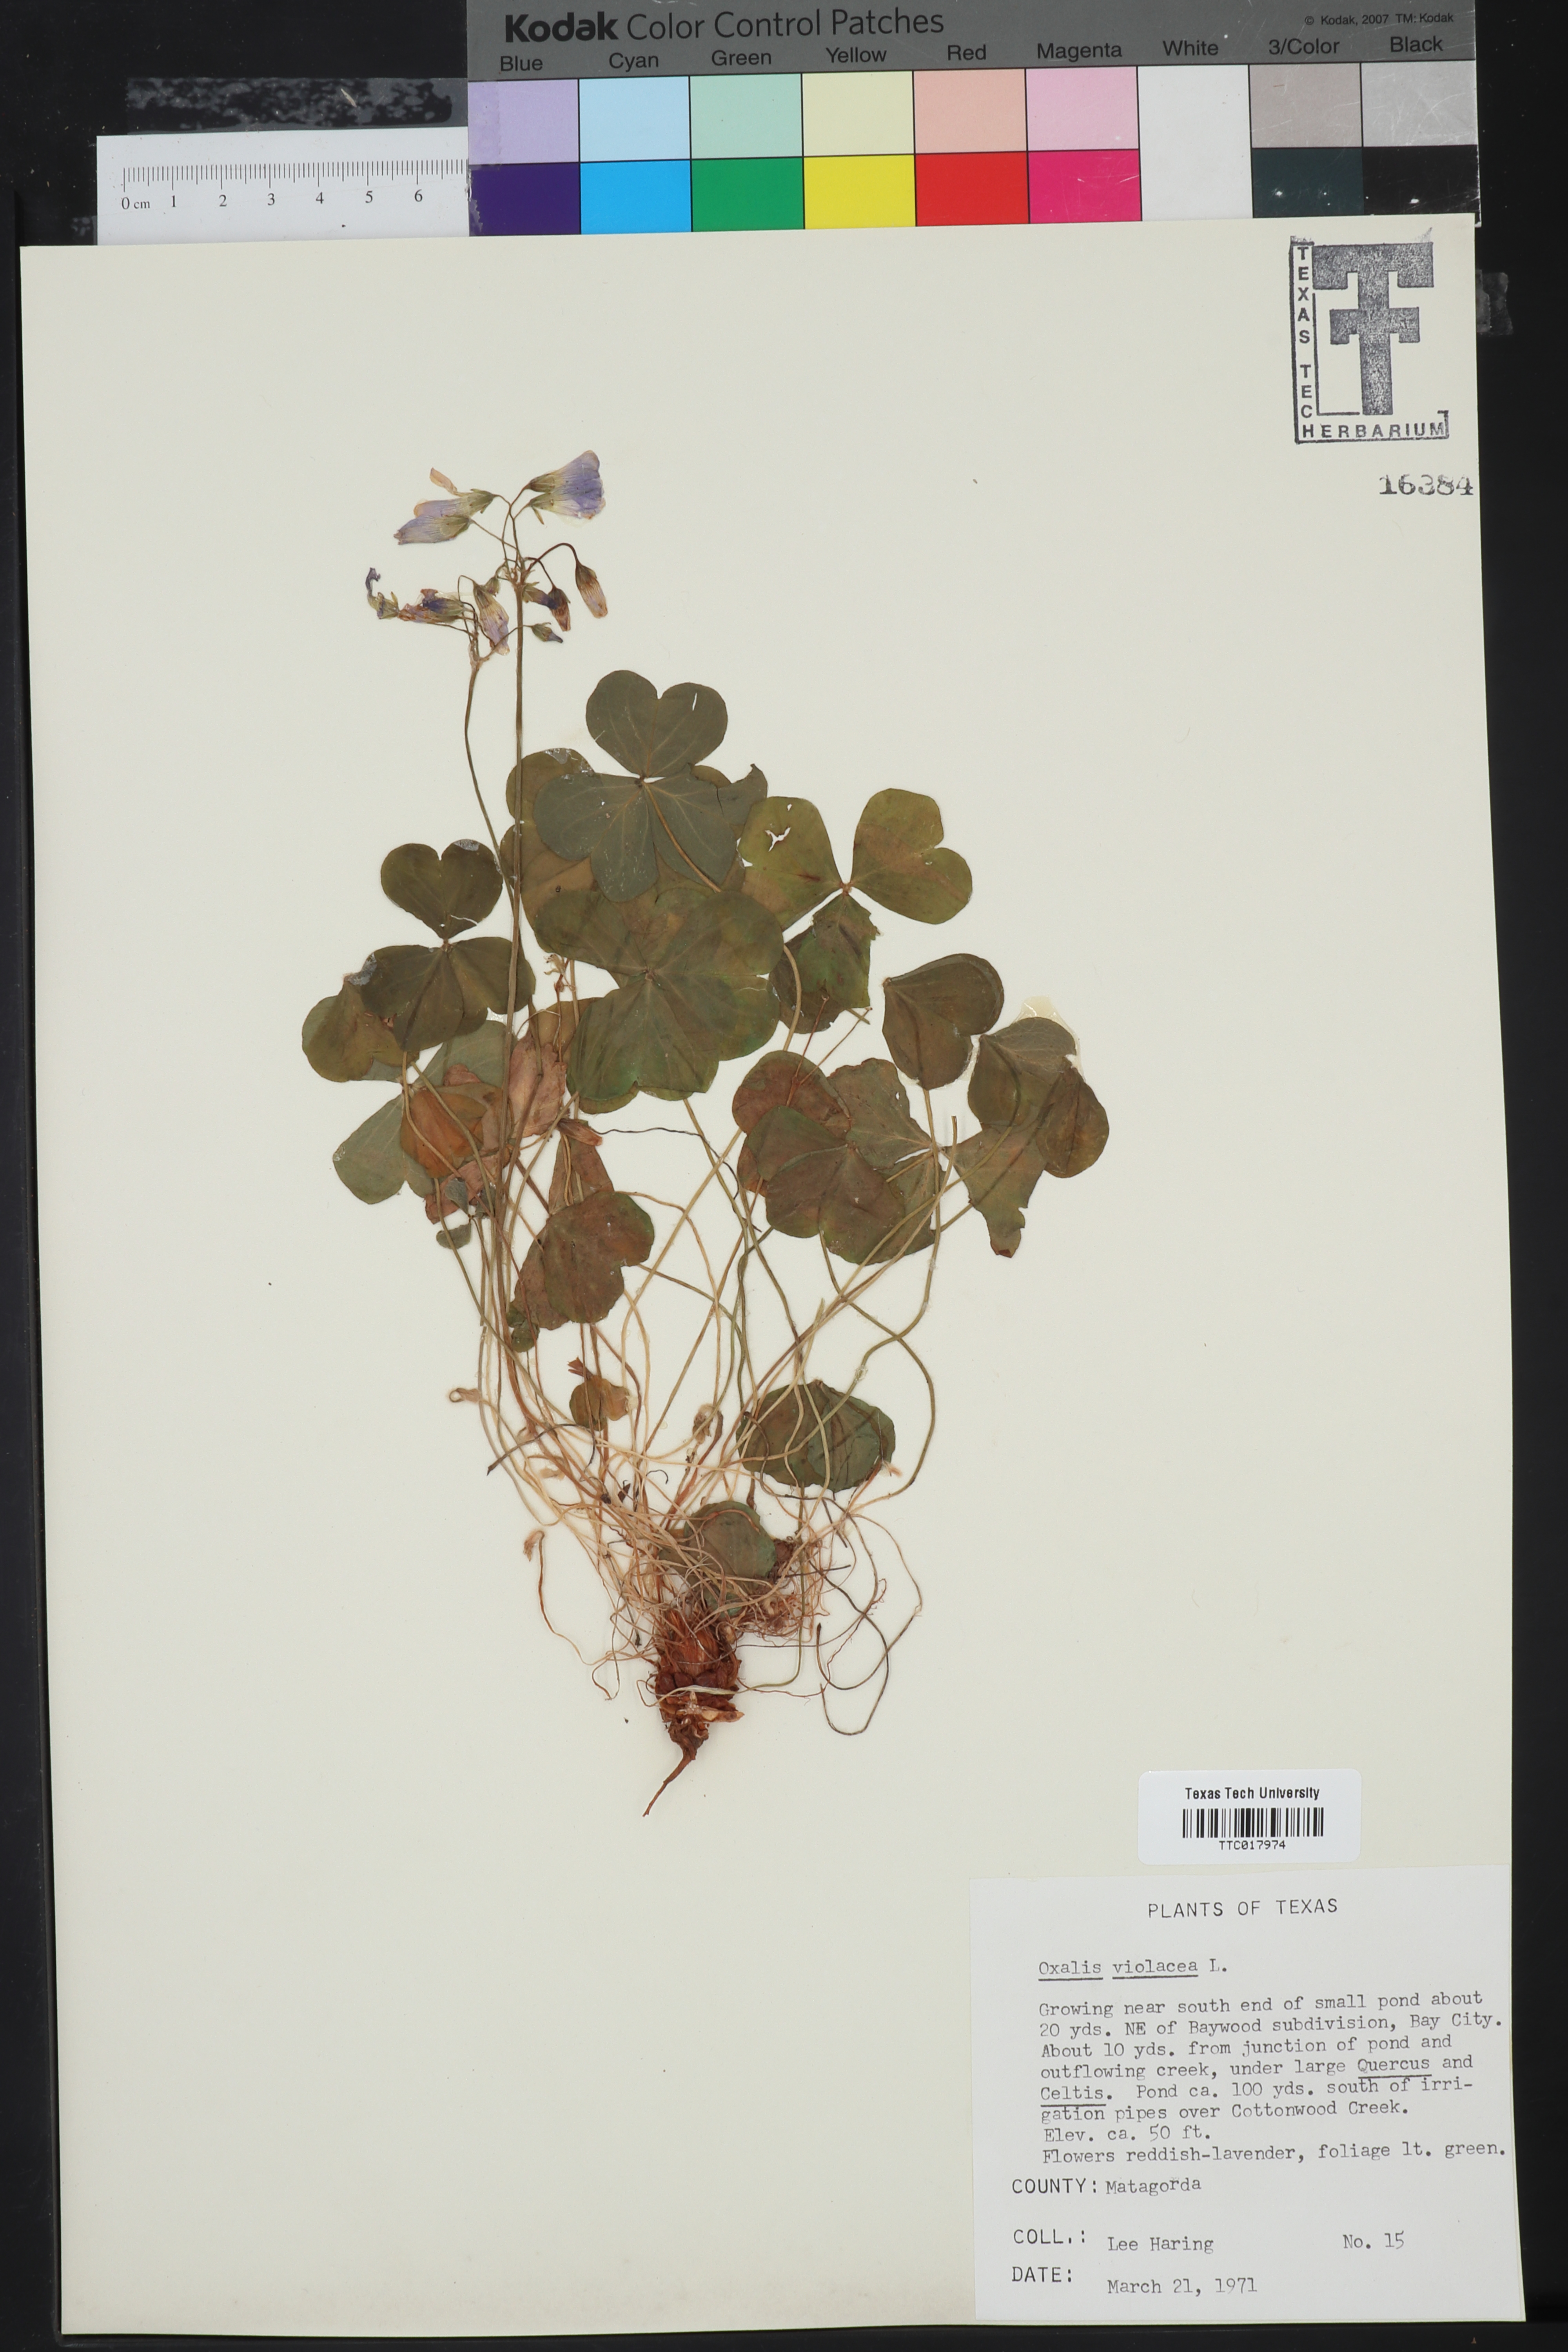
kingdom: Plantae
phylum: Tracheophyta
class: Magnoliopsida
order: Oxalidales
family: Oxalidaceae
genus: Oxalis
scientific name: Oxalis violacea
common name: Violet wood-sorrel
